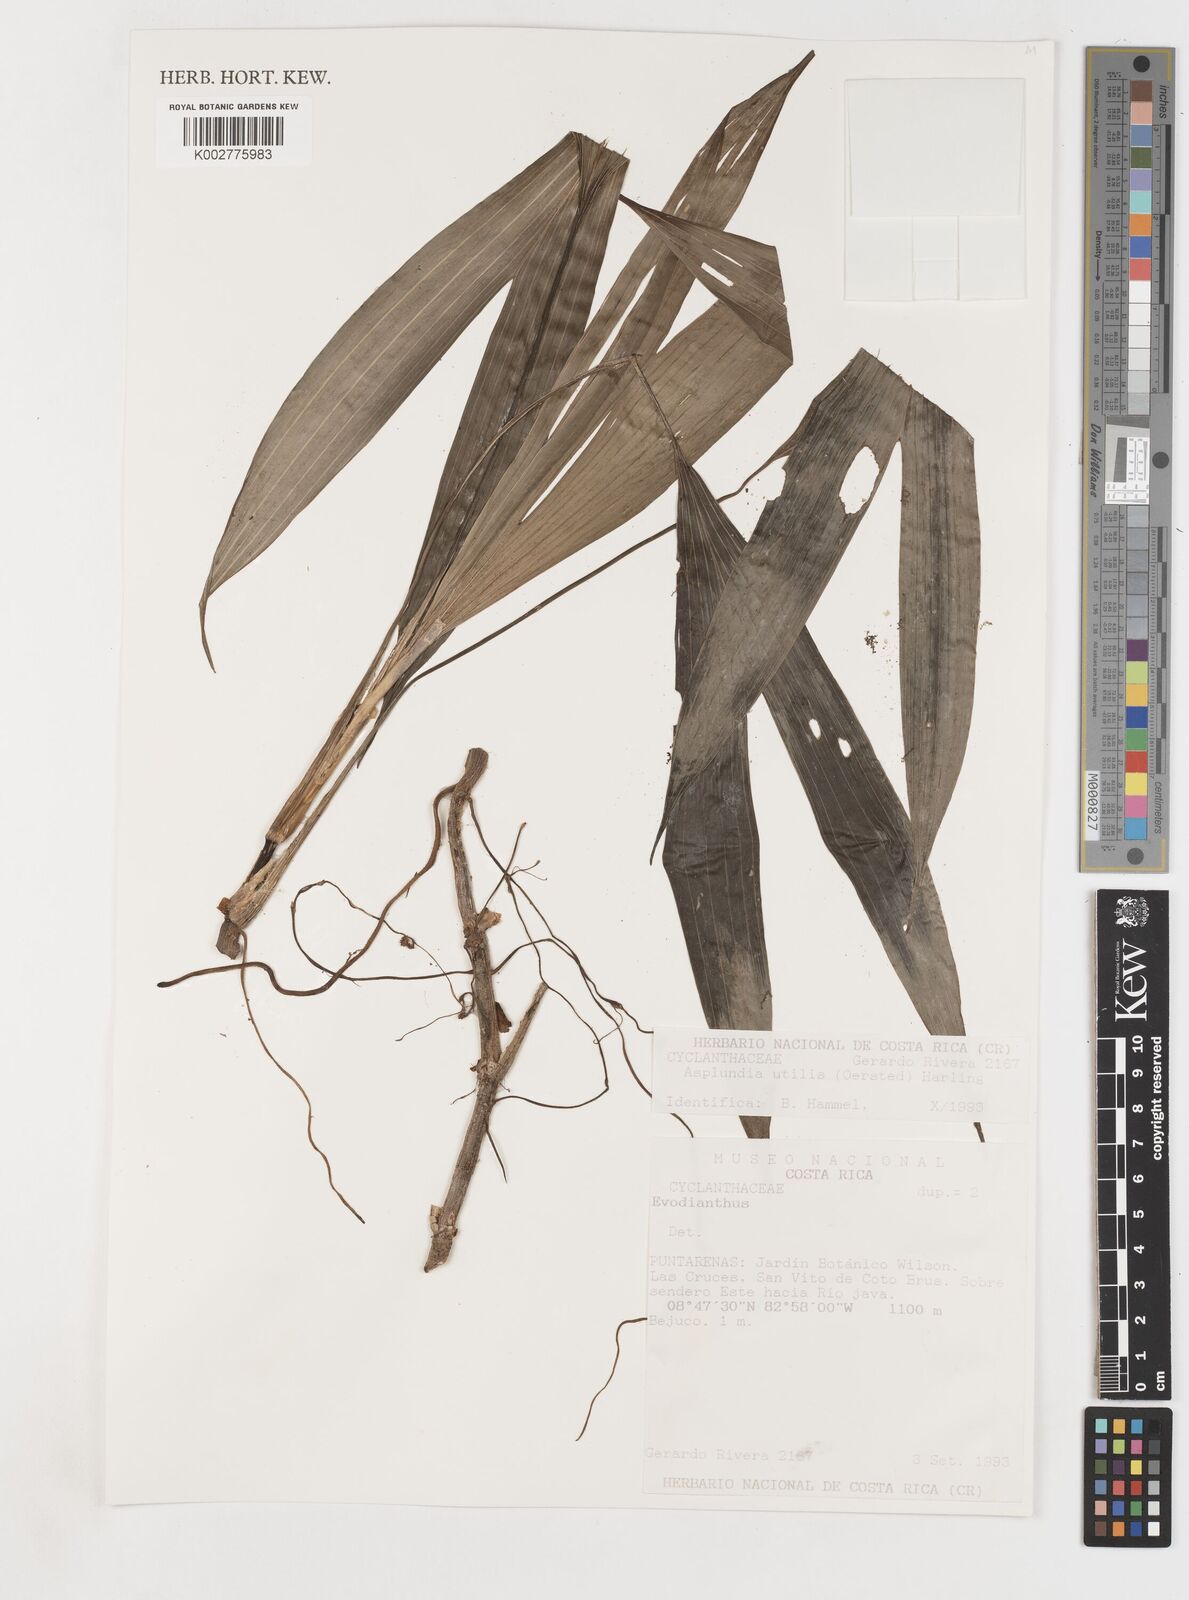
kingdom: Plantae
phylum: Tracheophyta
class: Liliopsida
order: Pandanales
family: Cyclanthaceae
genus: Asplundia
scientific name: Asplundia utilis
